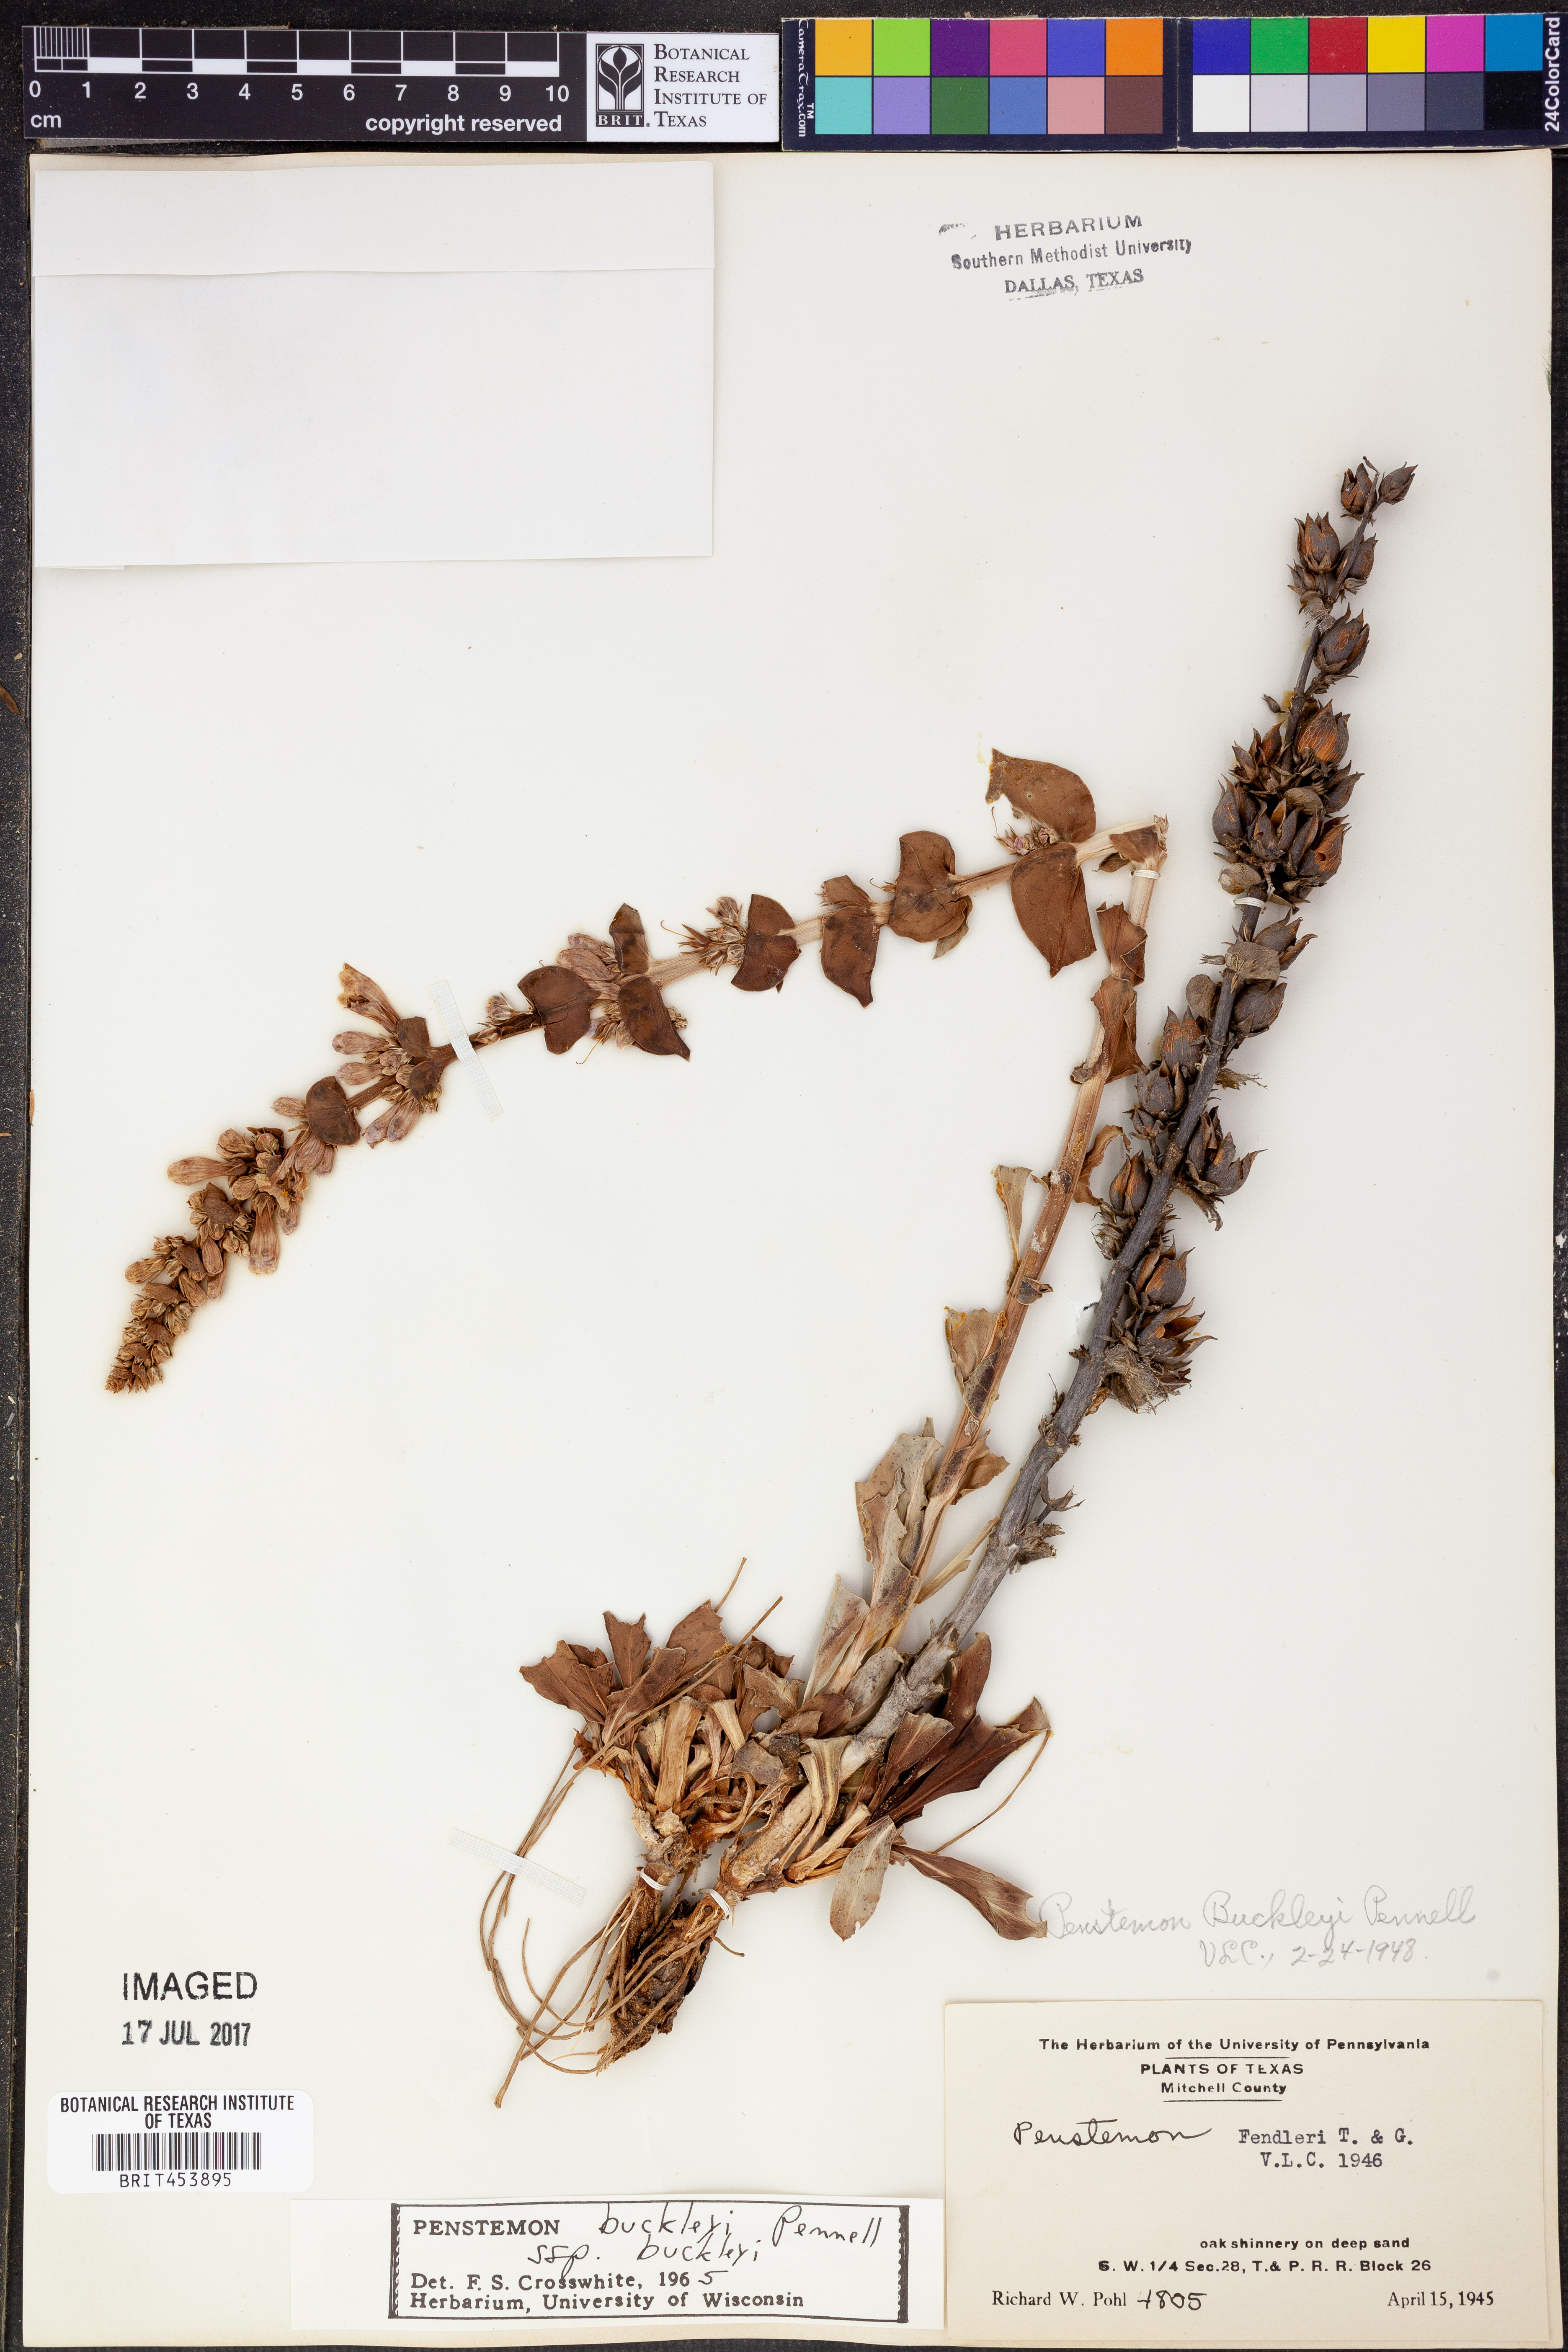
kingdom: Plantae
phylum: Tracheophyta
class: Magnoliopsida
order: Lamiales
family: Plantaginaceae
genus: Penstemon
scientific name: Penstemon buckleyi
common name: Buckley's penstemon
